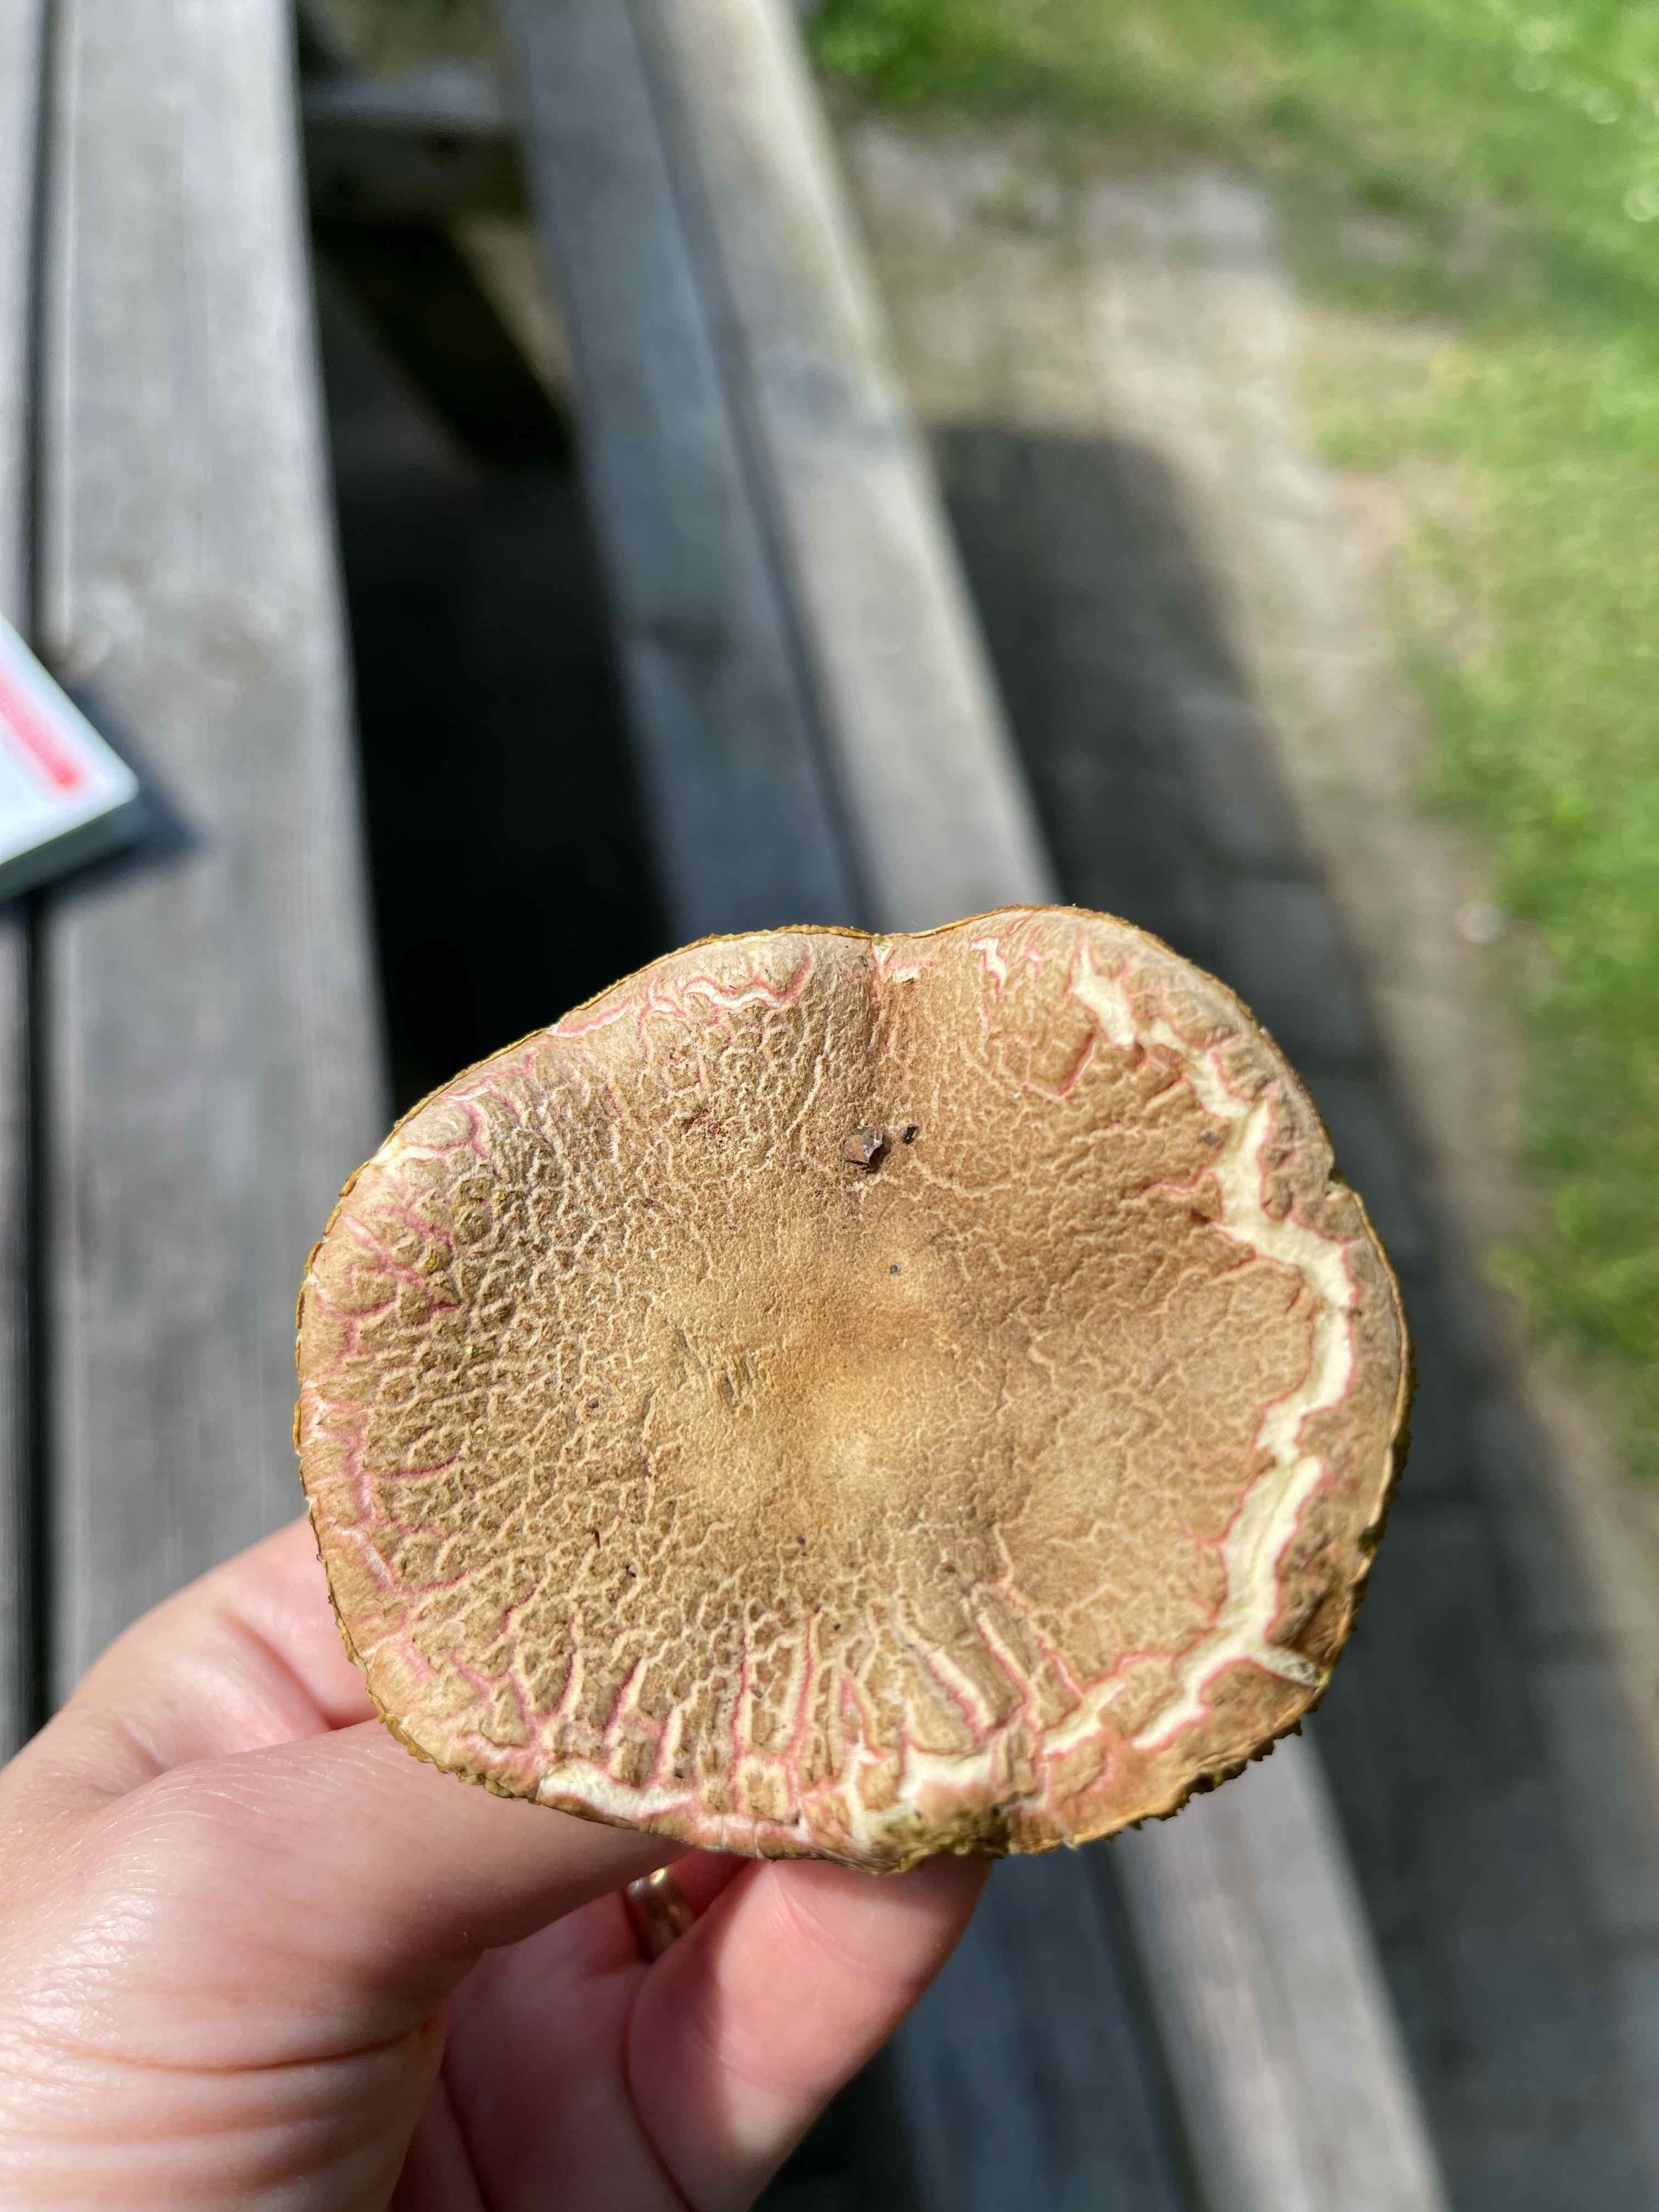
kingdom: Fungi
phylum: Basidiomycota
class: Agaricomycetes
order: Boletales
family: Boletaceae
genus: Xerocomellus
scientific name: Xerocomellus chrysenteron
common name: rødsprukken rørhat
